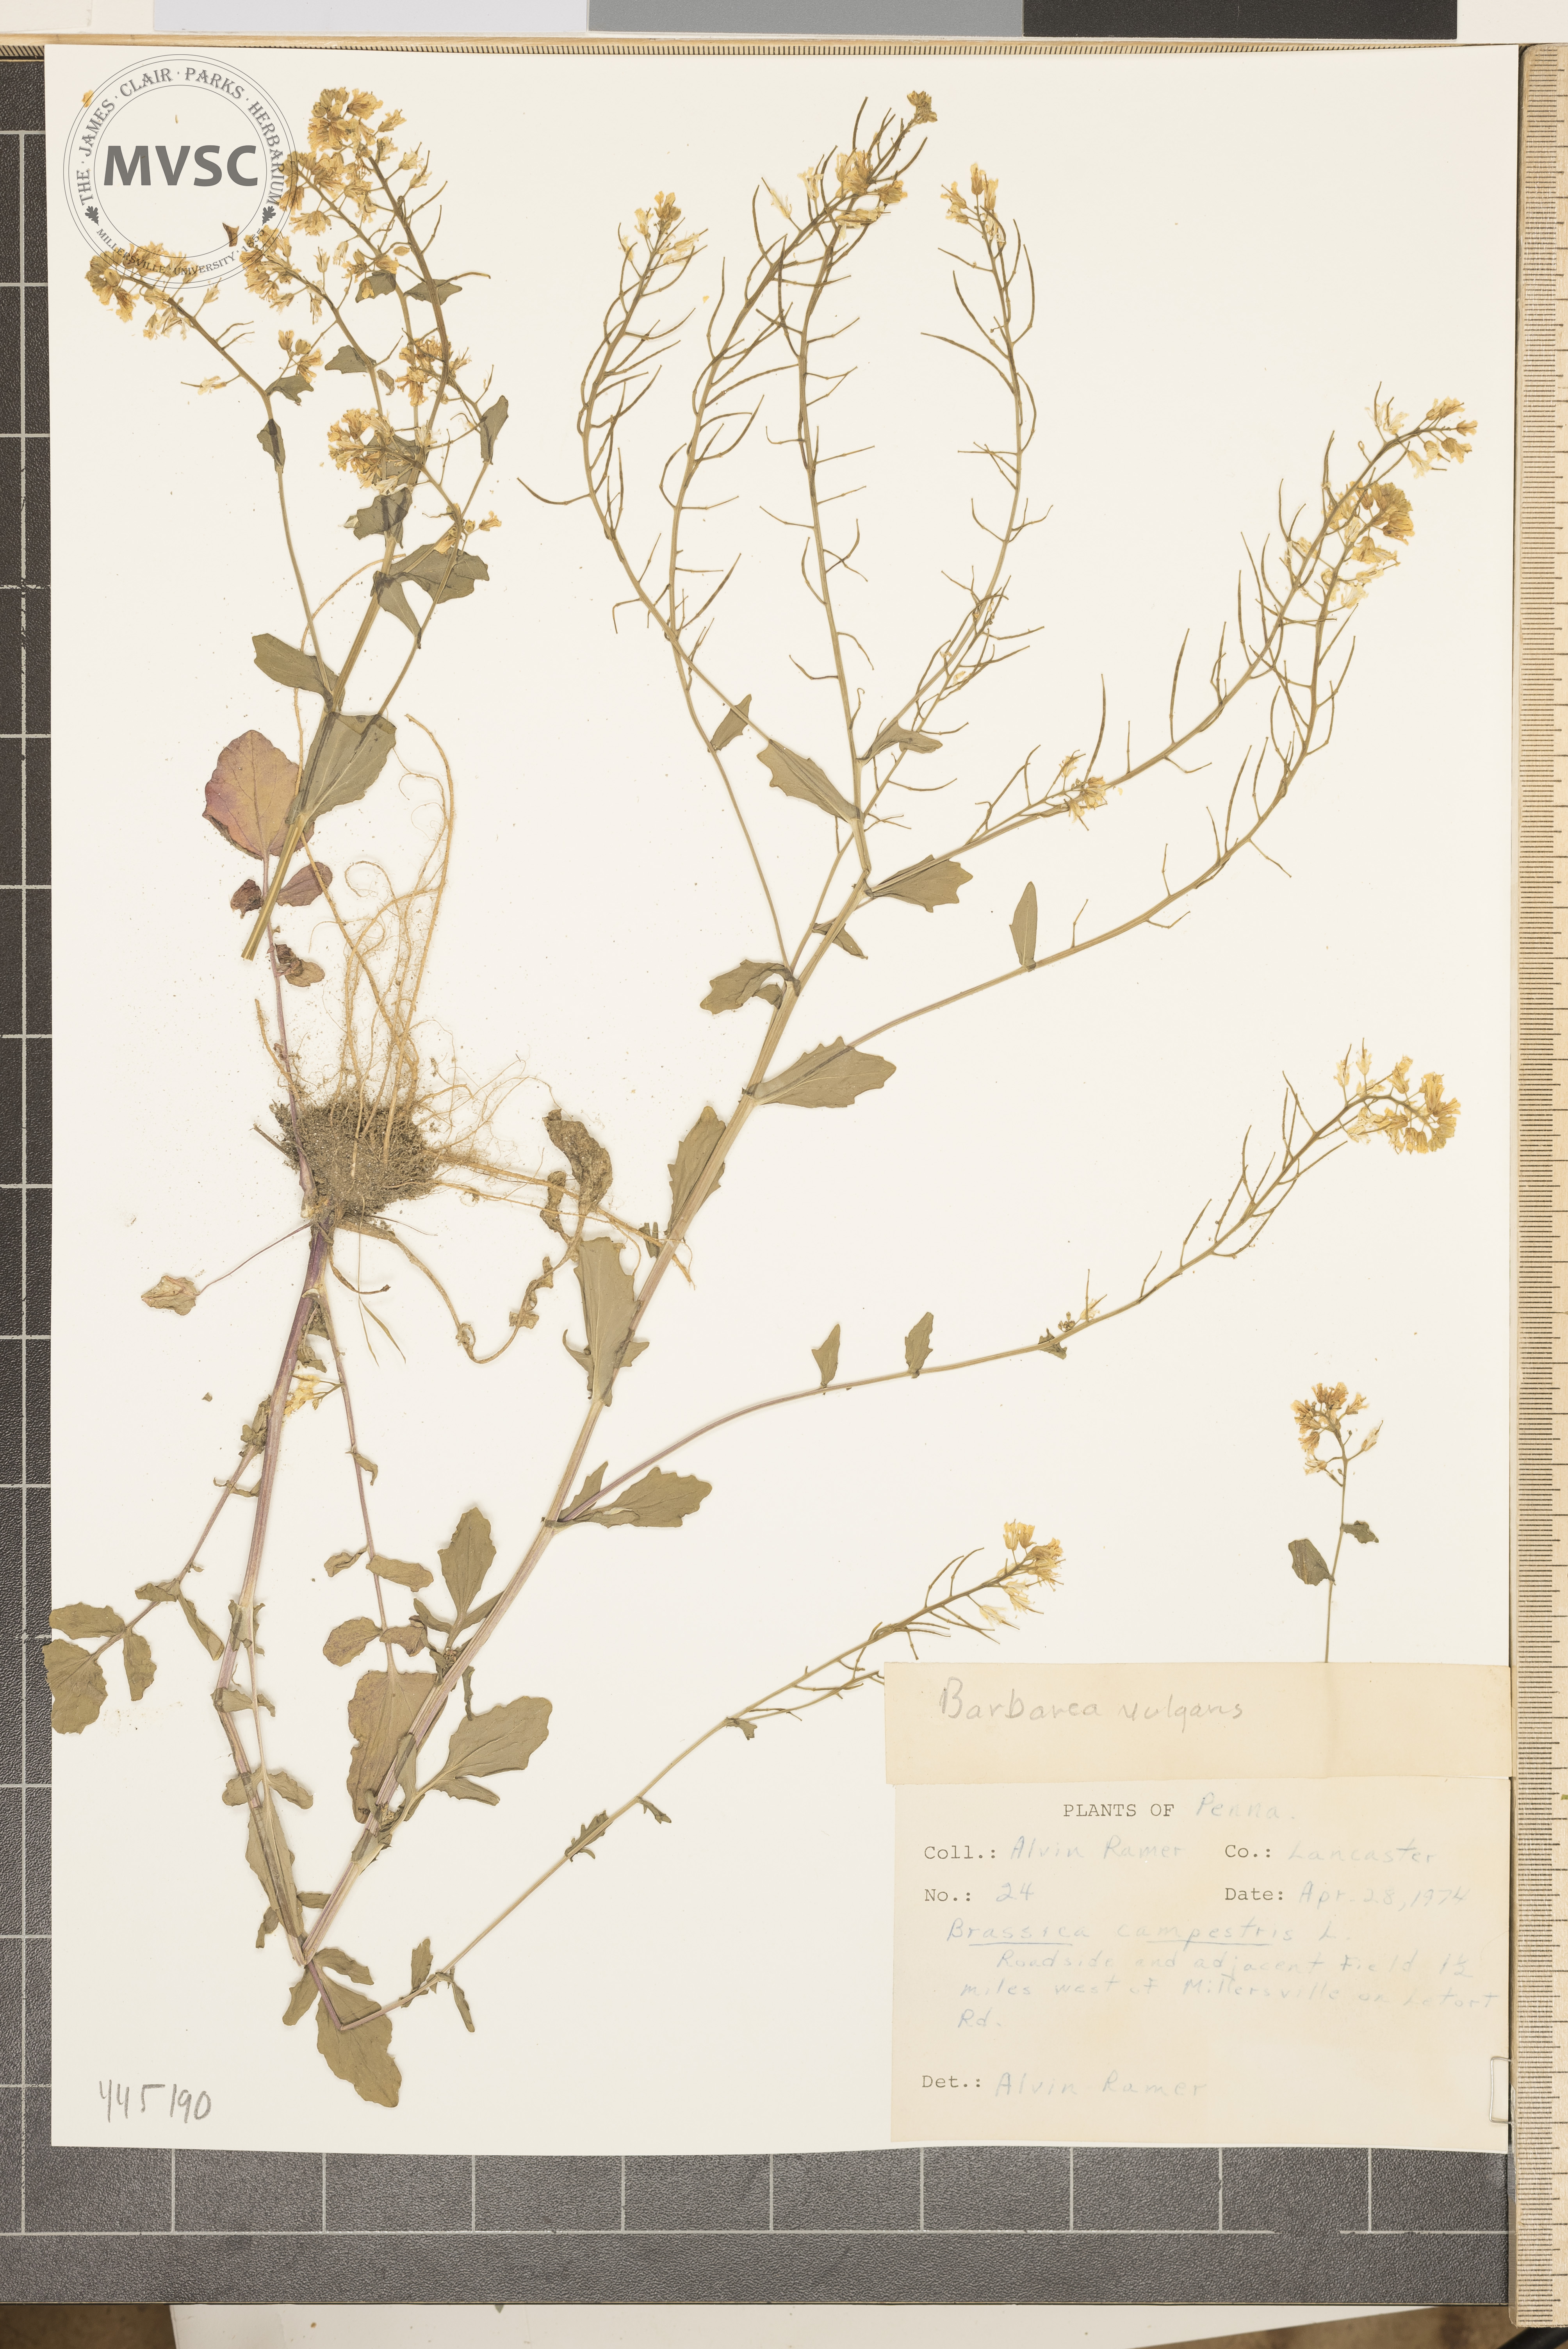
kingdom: Plantae
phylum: Tracheophyta
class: Magnoliopsida
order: Brassicales
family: Brassicaceae
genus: Barbarea
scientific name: Barbarea vulgaris
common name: Cressy-greens
